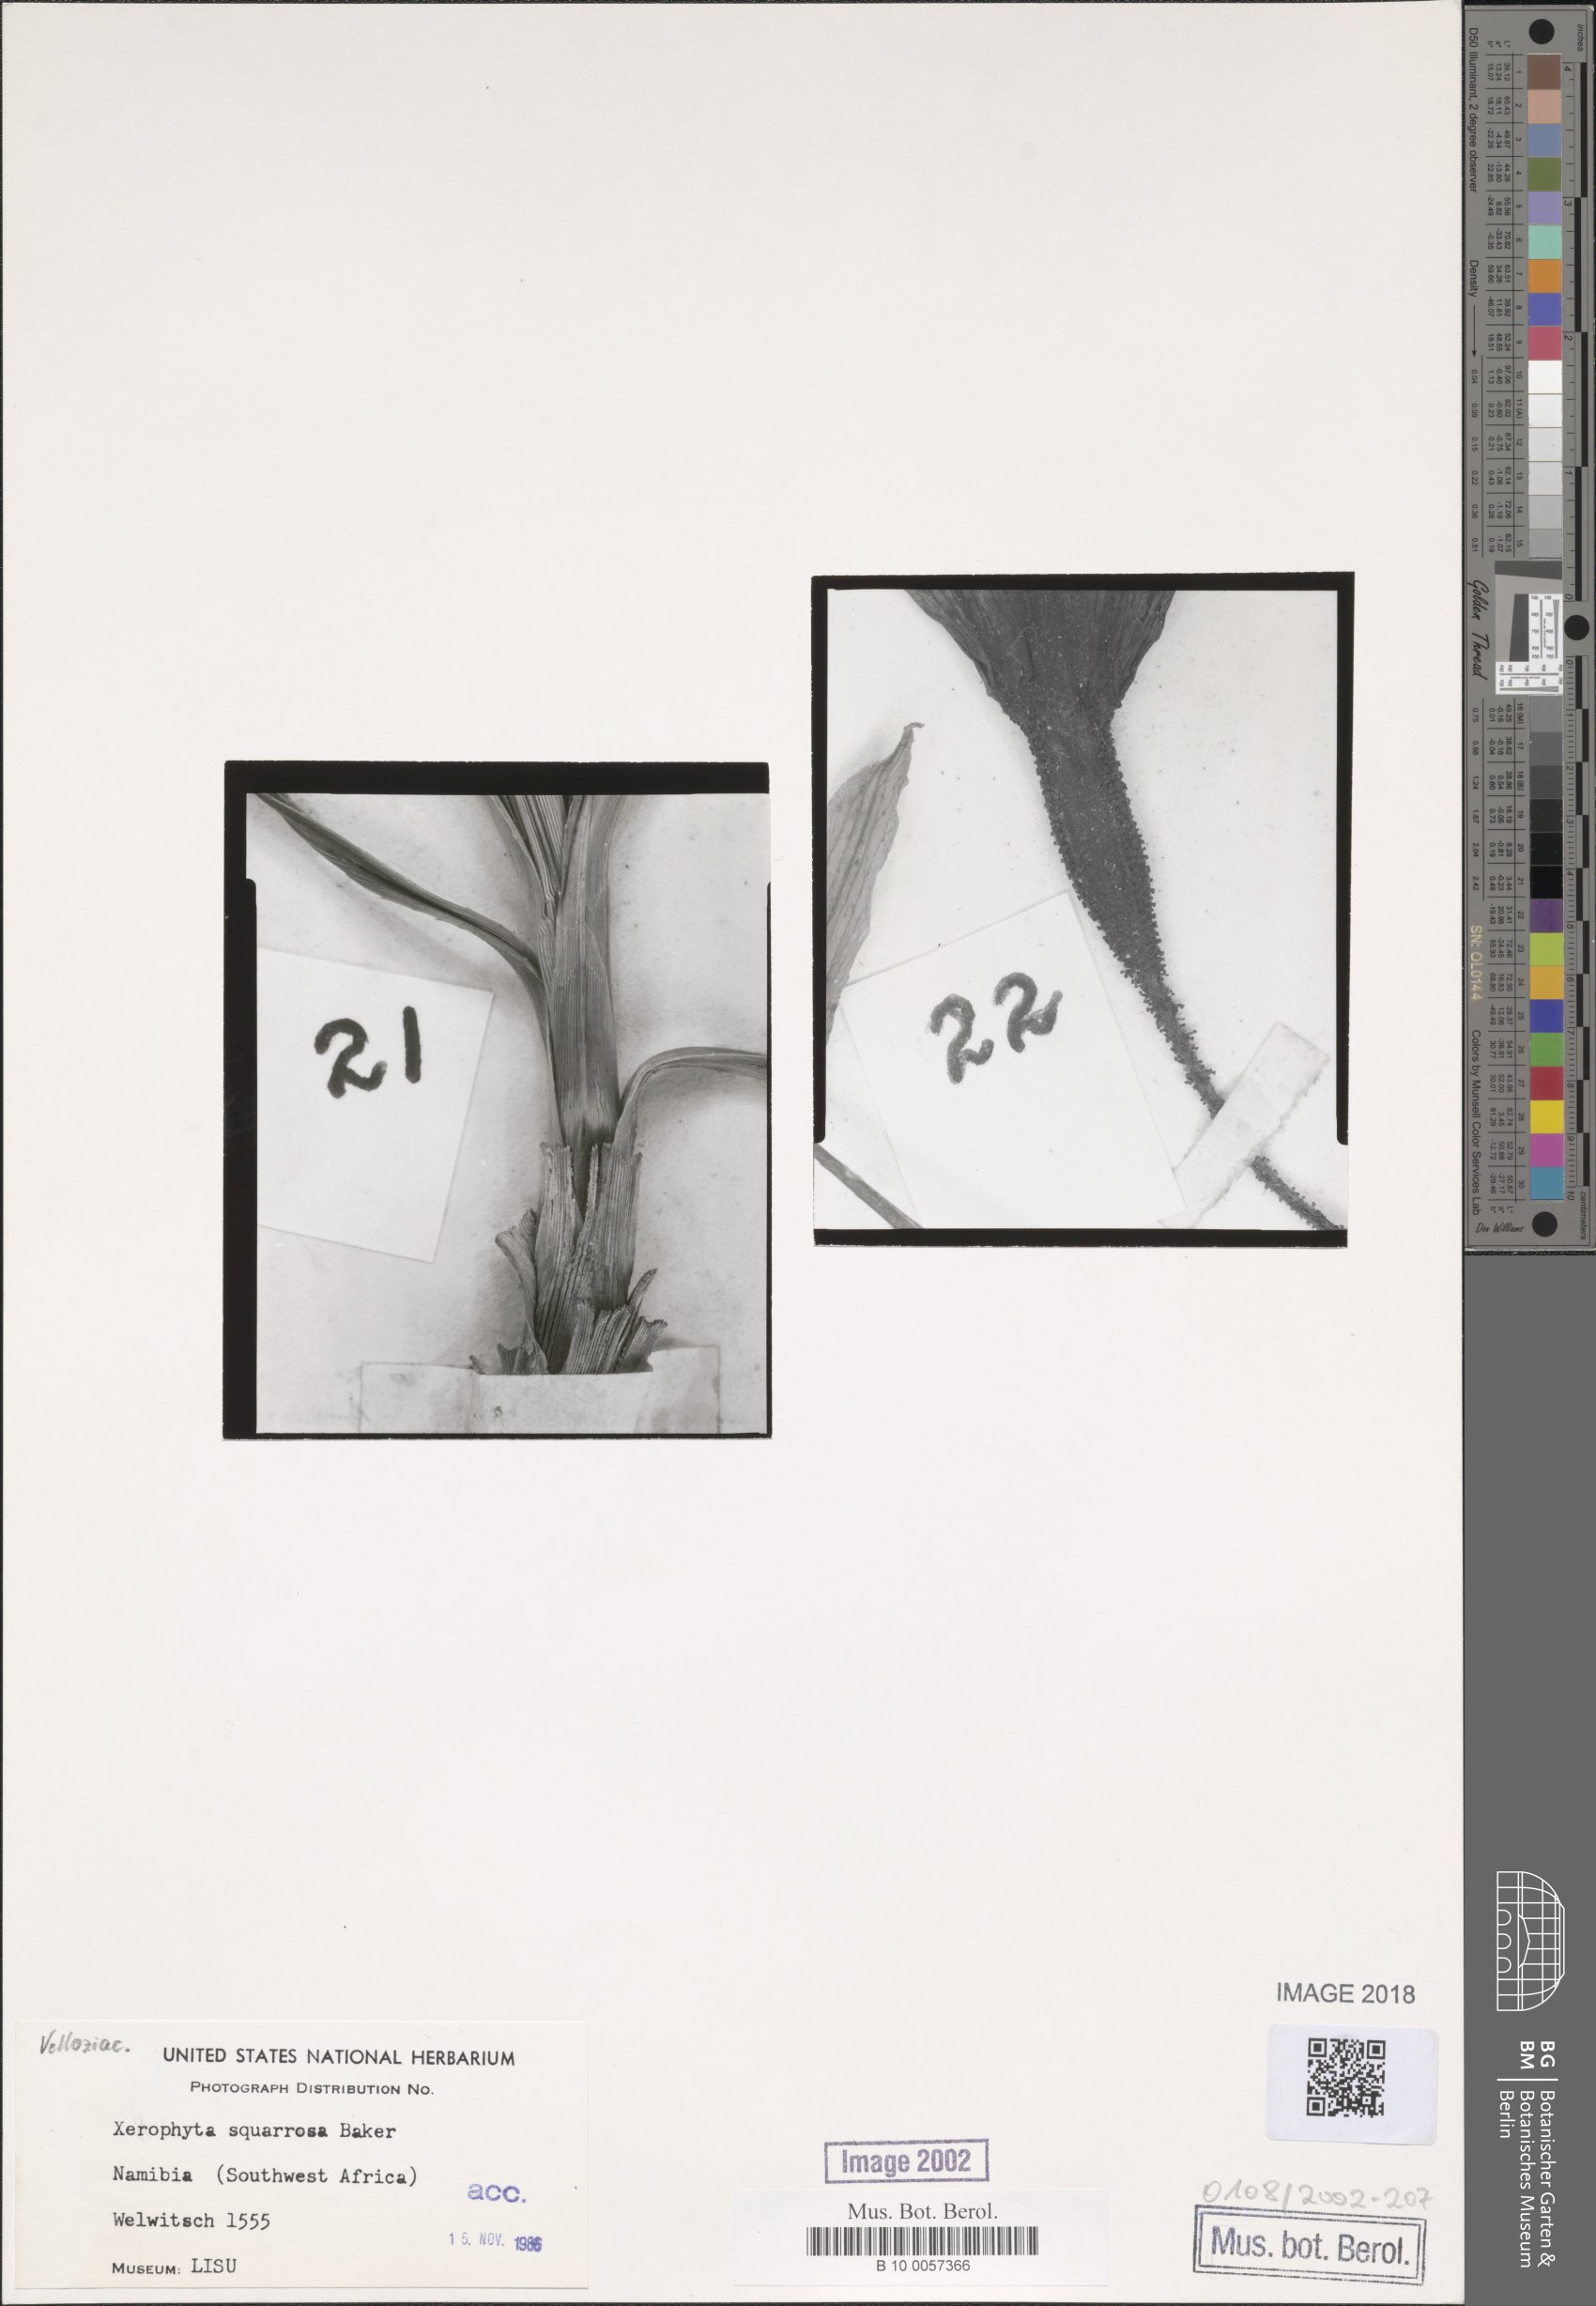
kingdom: Plantae
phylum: Tracheophyta
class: Liliopsida
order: Pandanales
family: Velloziaceae
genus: Xerophyta
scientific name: Xerophyta squarrosa
